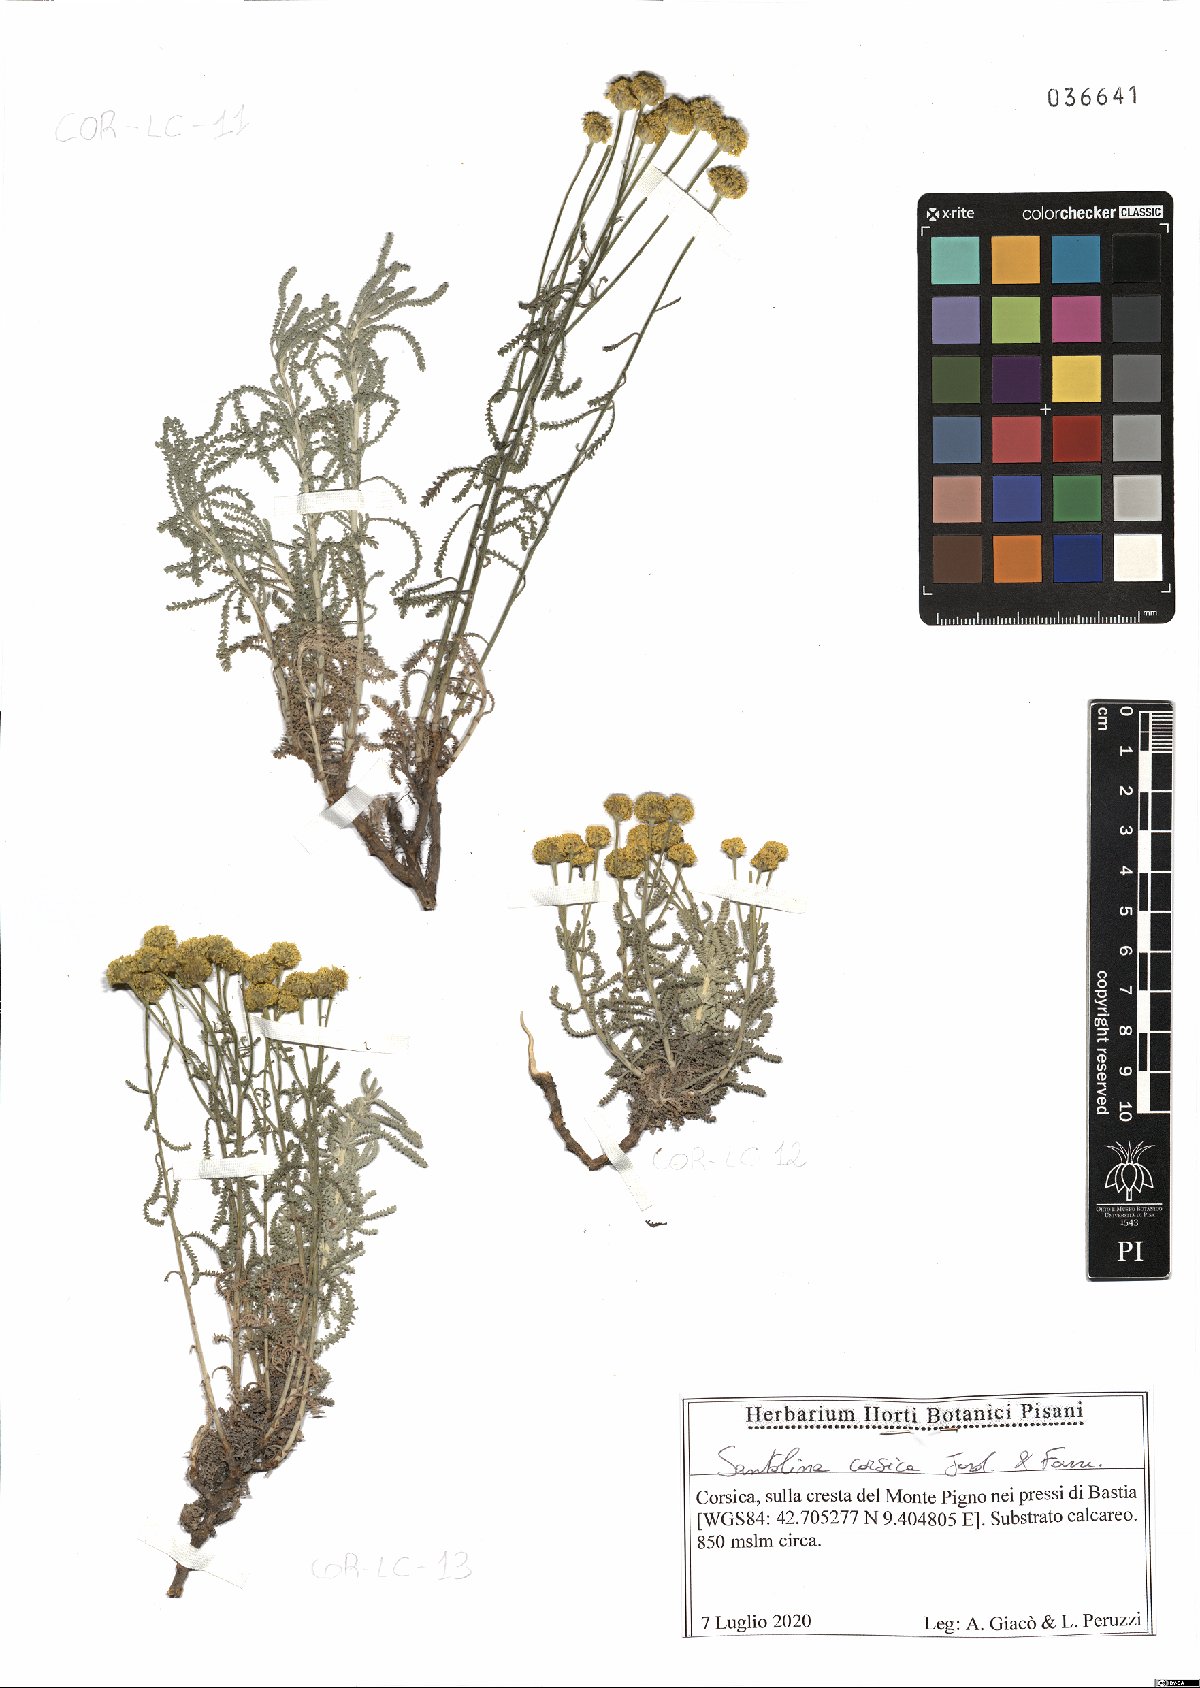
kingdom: Plantae
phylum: Tracheophyta
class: Magnoliopsida
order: Asterales
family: Asteraceae
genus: Santolina
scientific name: Santolina corsica
